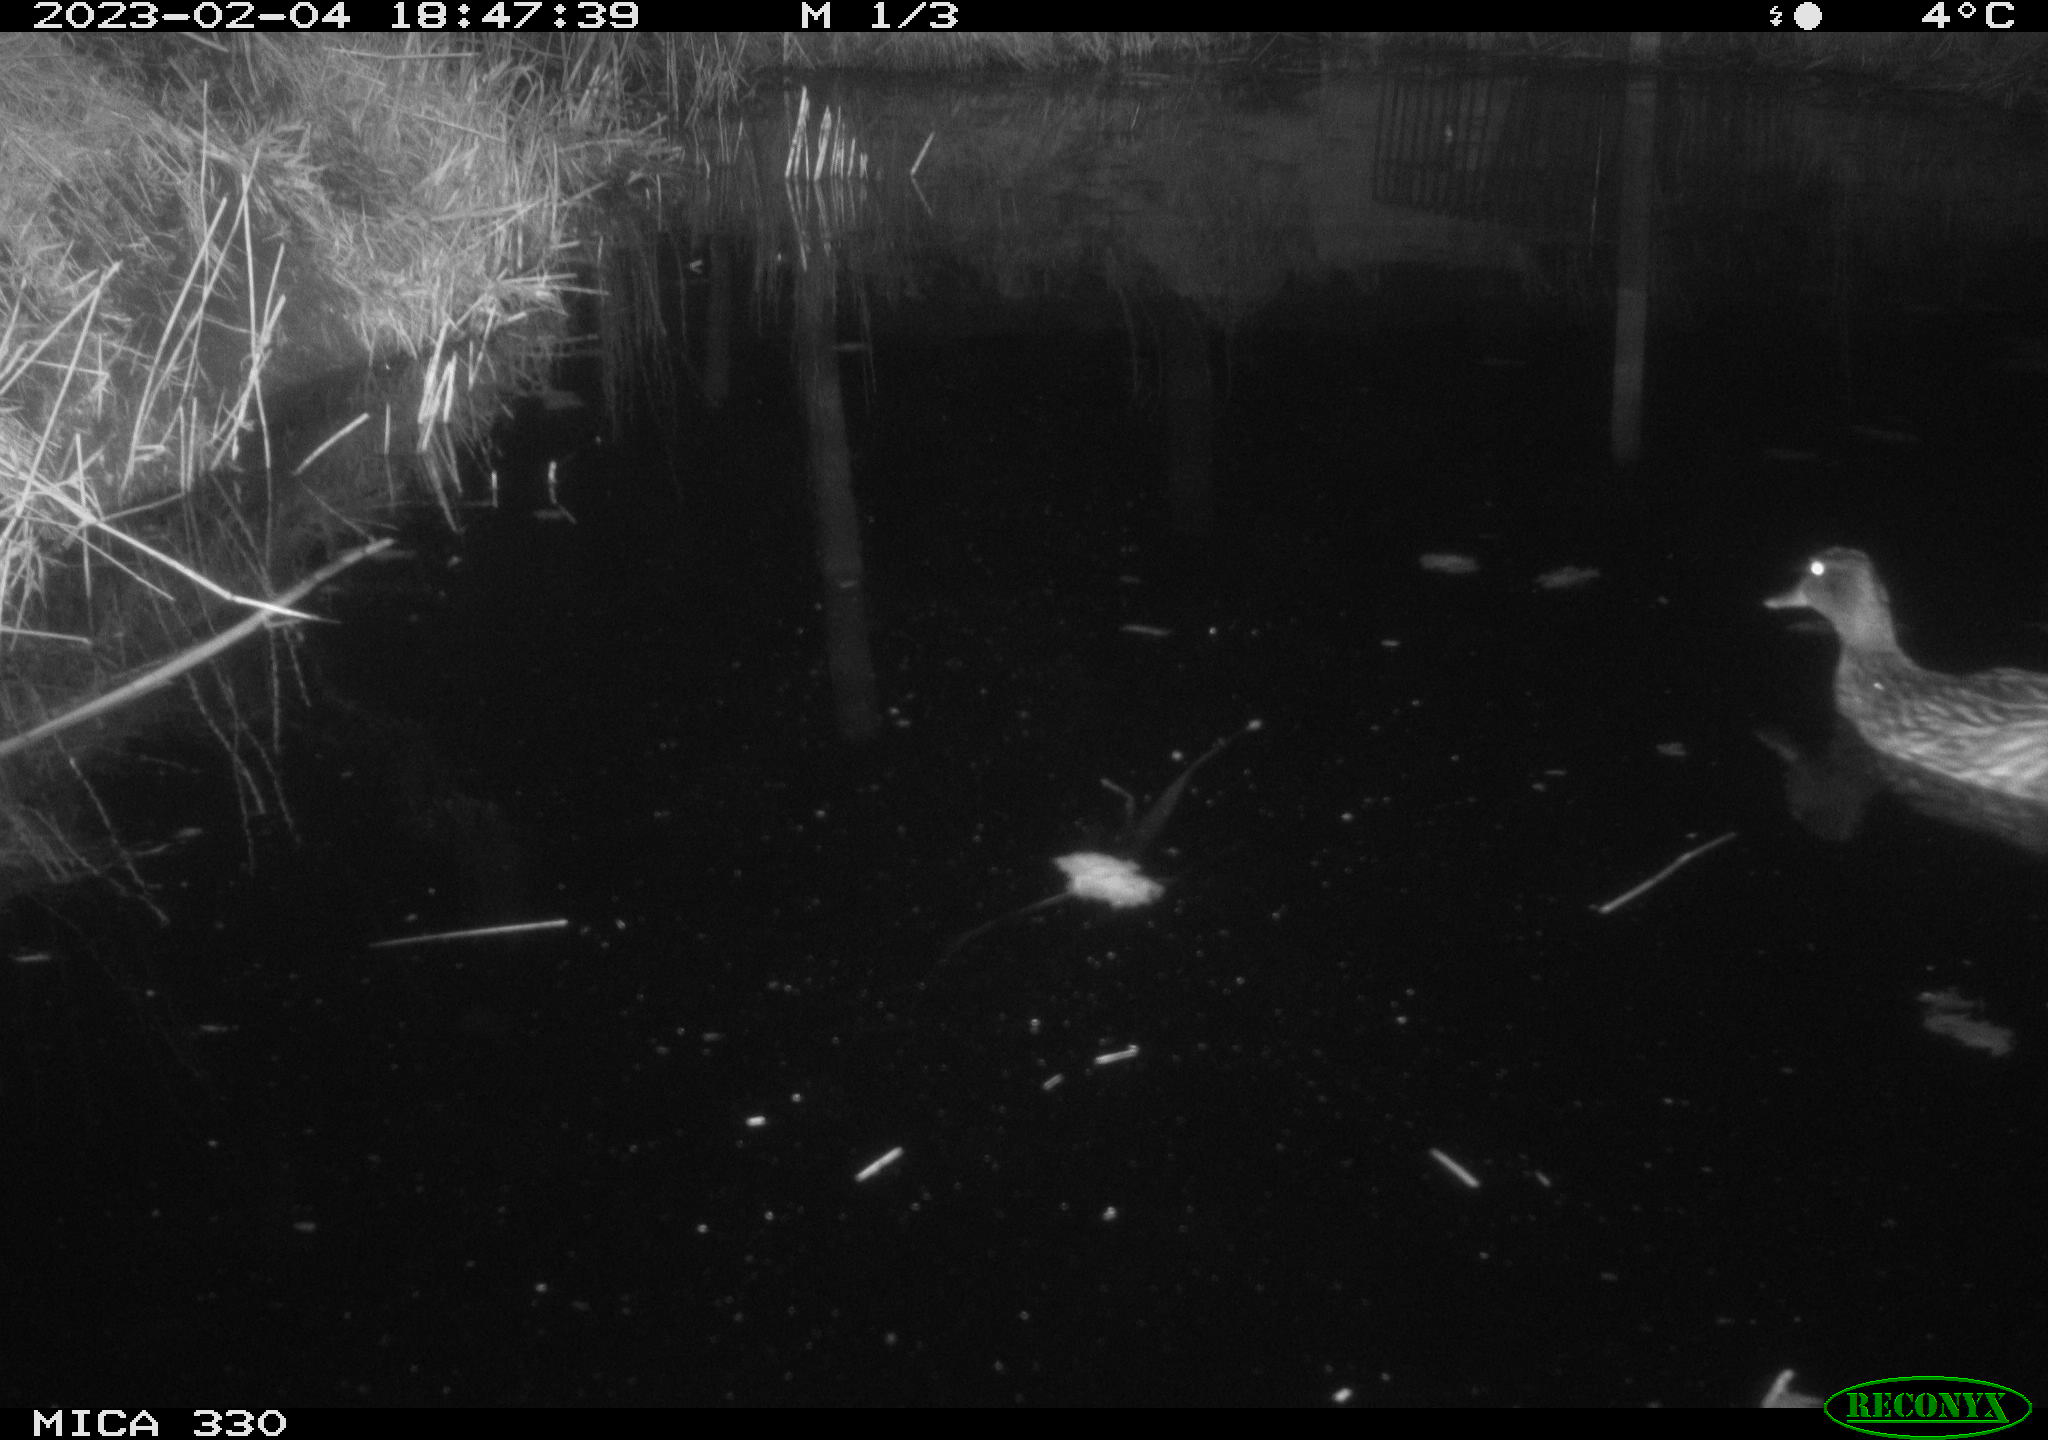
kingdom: Animalia
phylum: Chordata
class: Aves
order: Anseriformes
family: Anatidae
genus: Anas
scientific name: Anas
